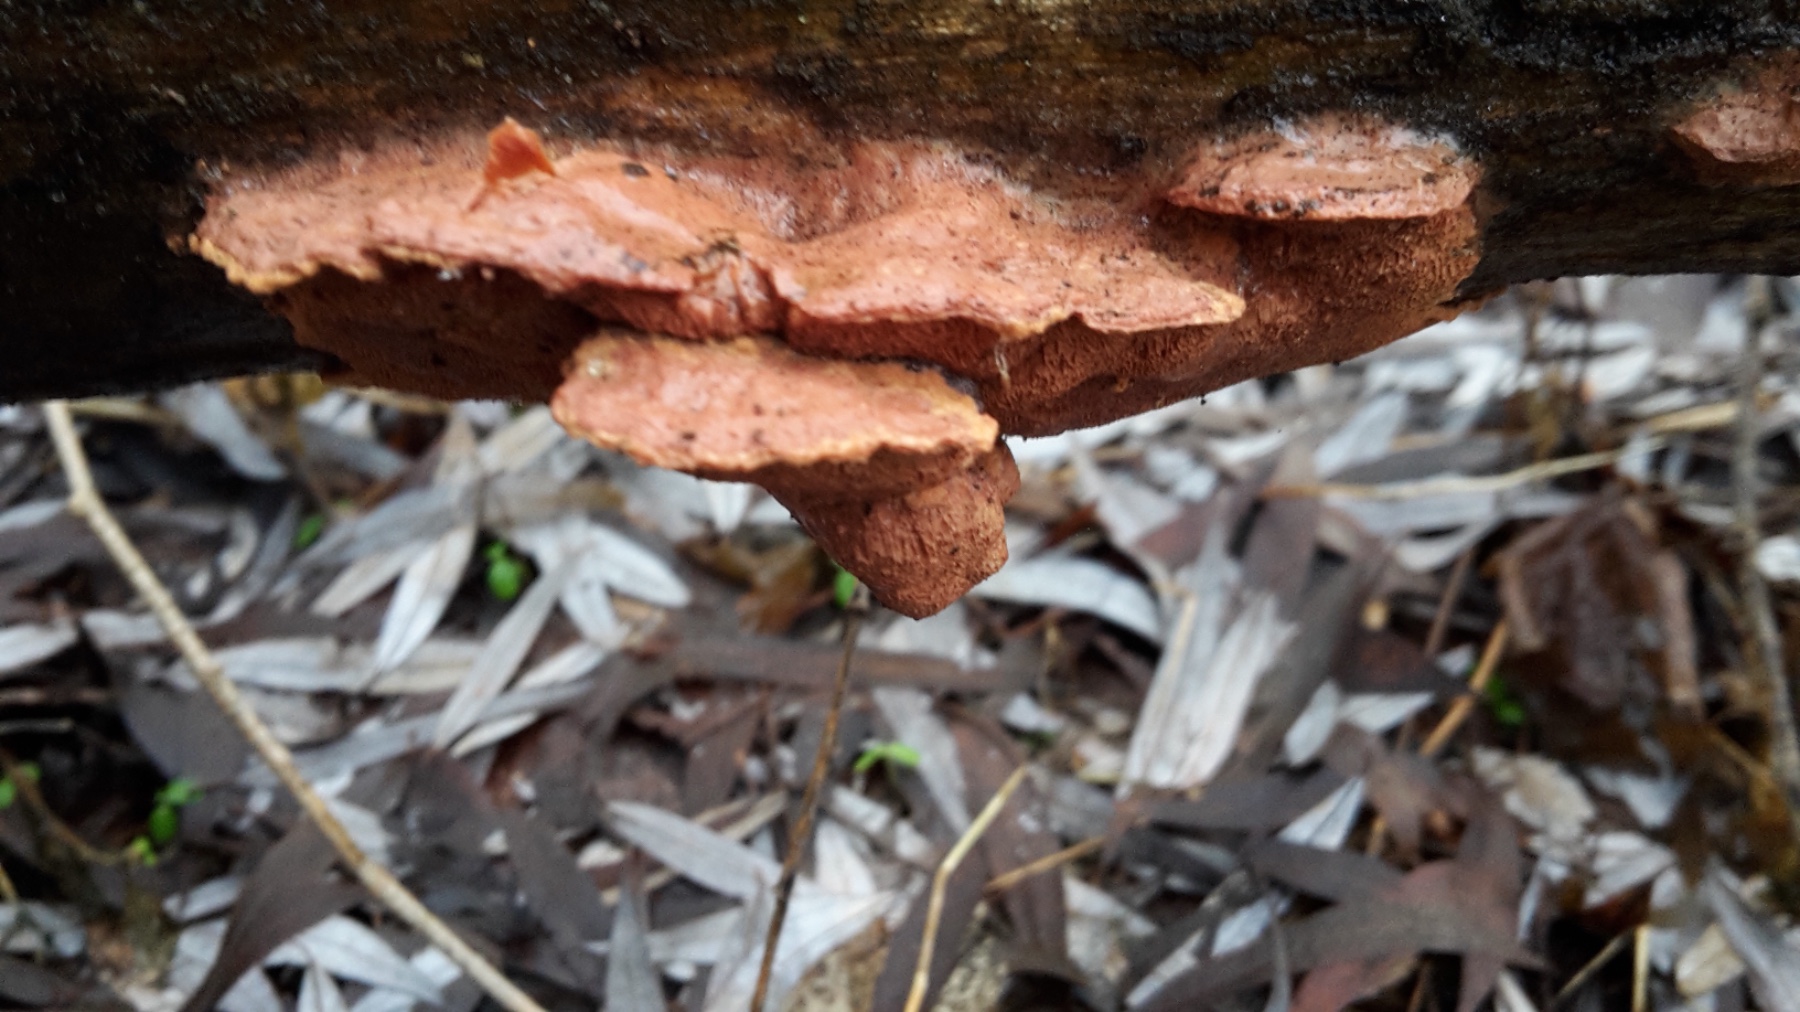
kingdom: Fungi
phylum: Basidiomycota
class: Agaricomycetes
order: Polyporales
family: Phanerochaetaceae
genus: Hapalopilus
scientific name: Hapalopilus rutilans
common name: rødlig okkerporesvamp
